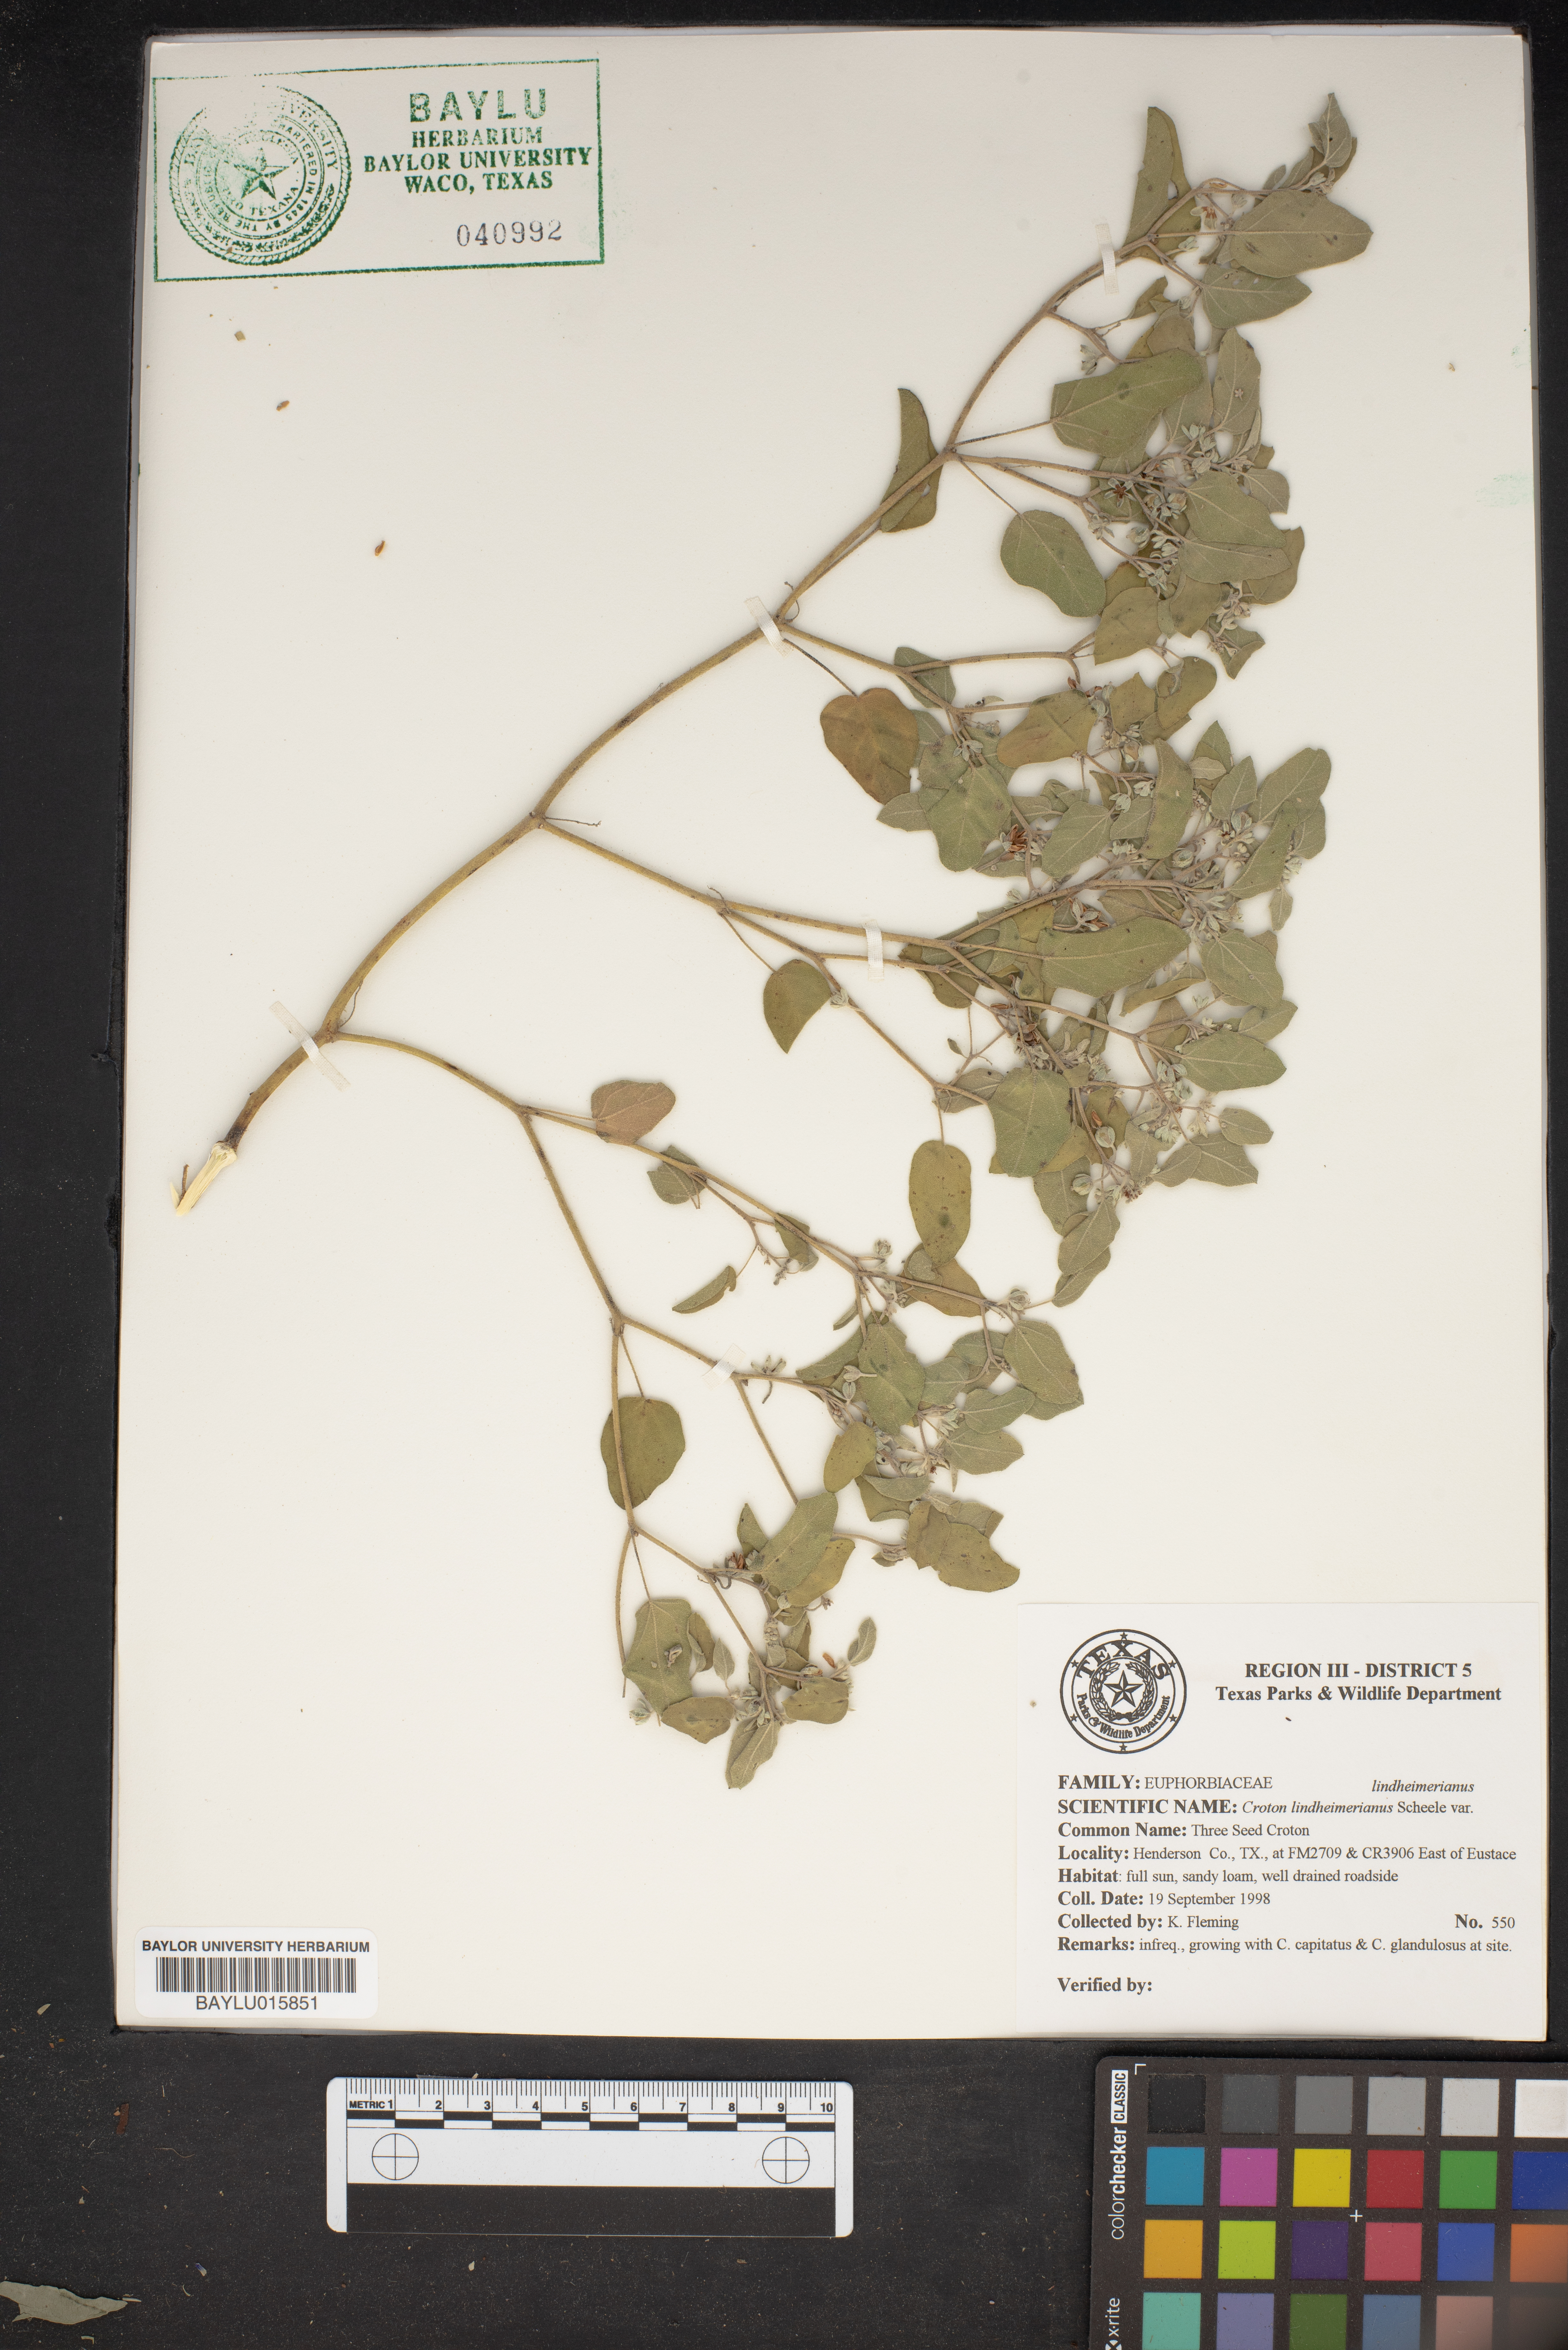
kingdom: Plantae
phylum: Tracheophyta
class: Magnoliopsida
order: Malpighiales
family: Euphorbiaceae
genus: Croton
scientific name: Croton lindheimerianus
